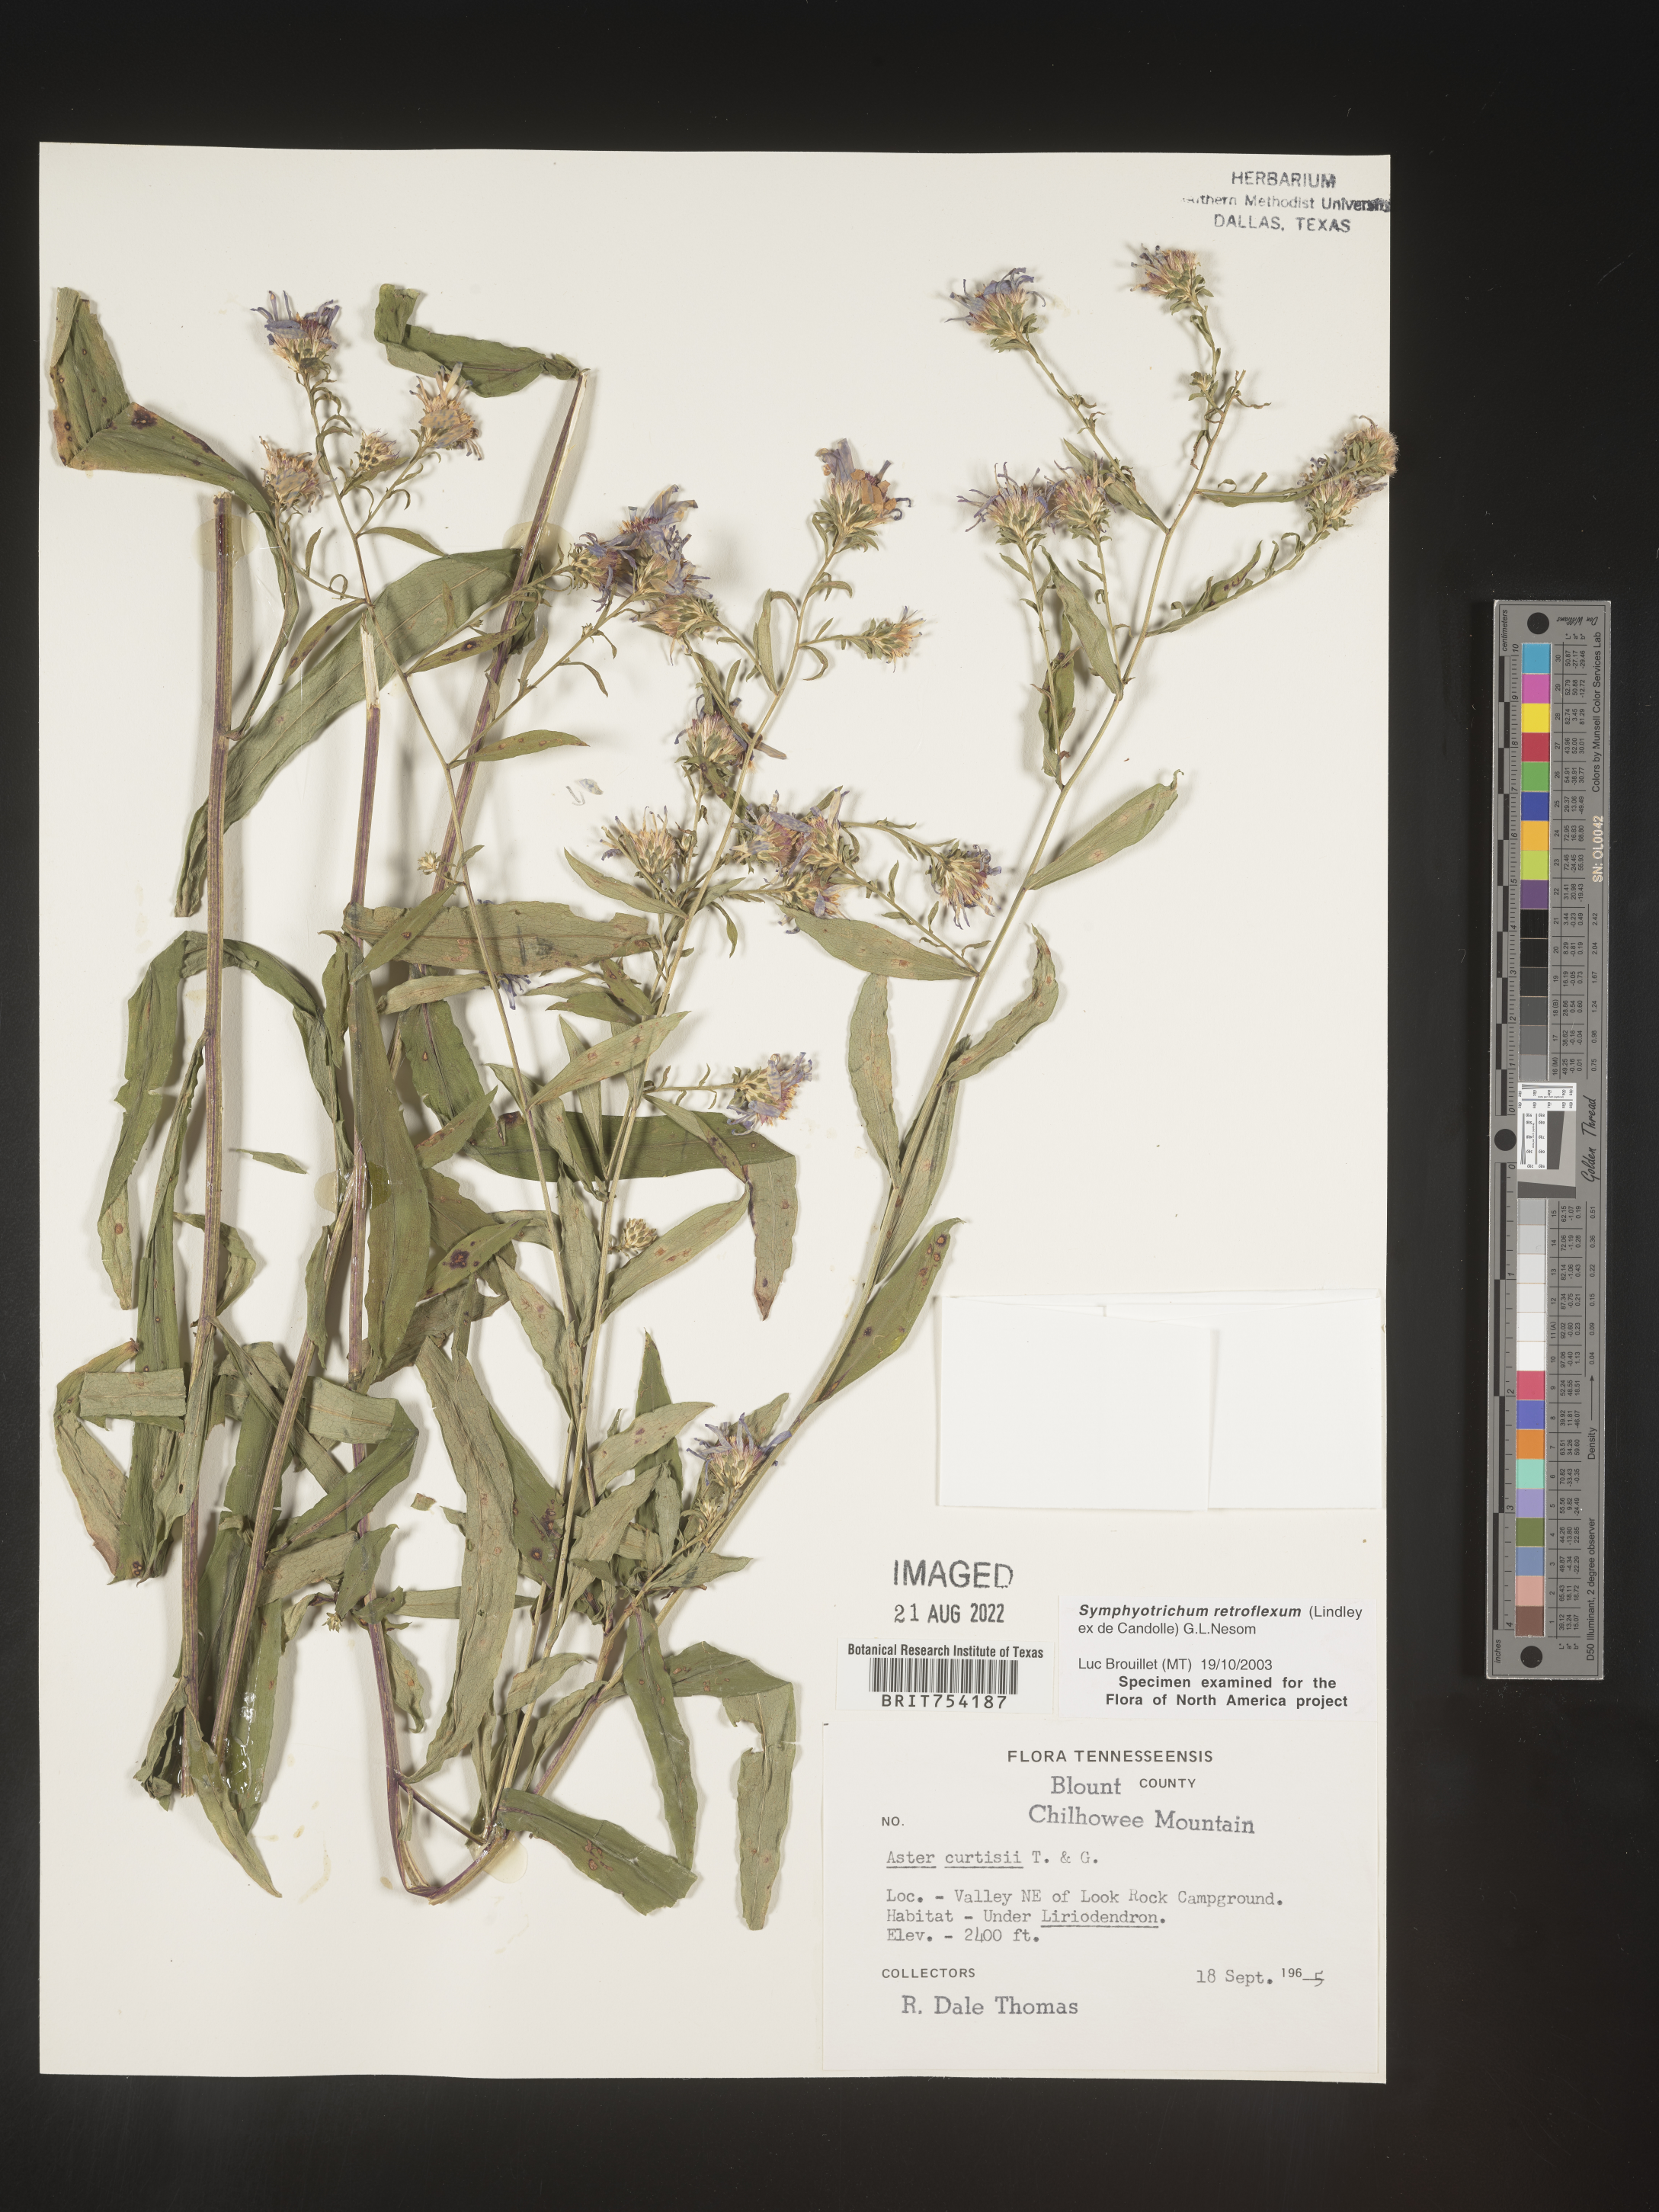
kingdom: Plantae
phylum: Tracheophyta
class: Magnoliopsida
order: Asterales
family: Asteraceae
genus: Symphyotrichum
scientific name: Symphyotrichum retroflexum
